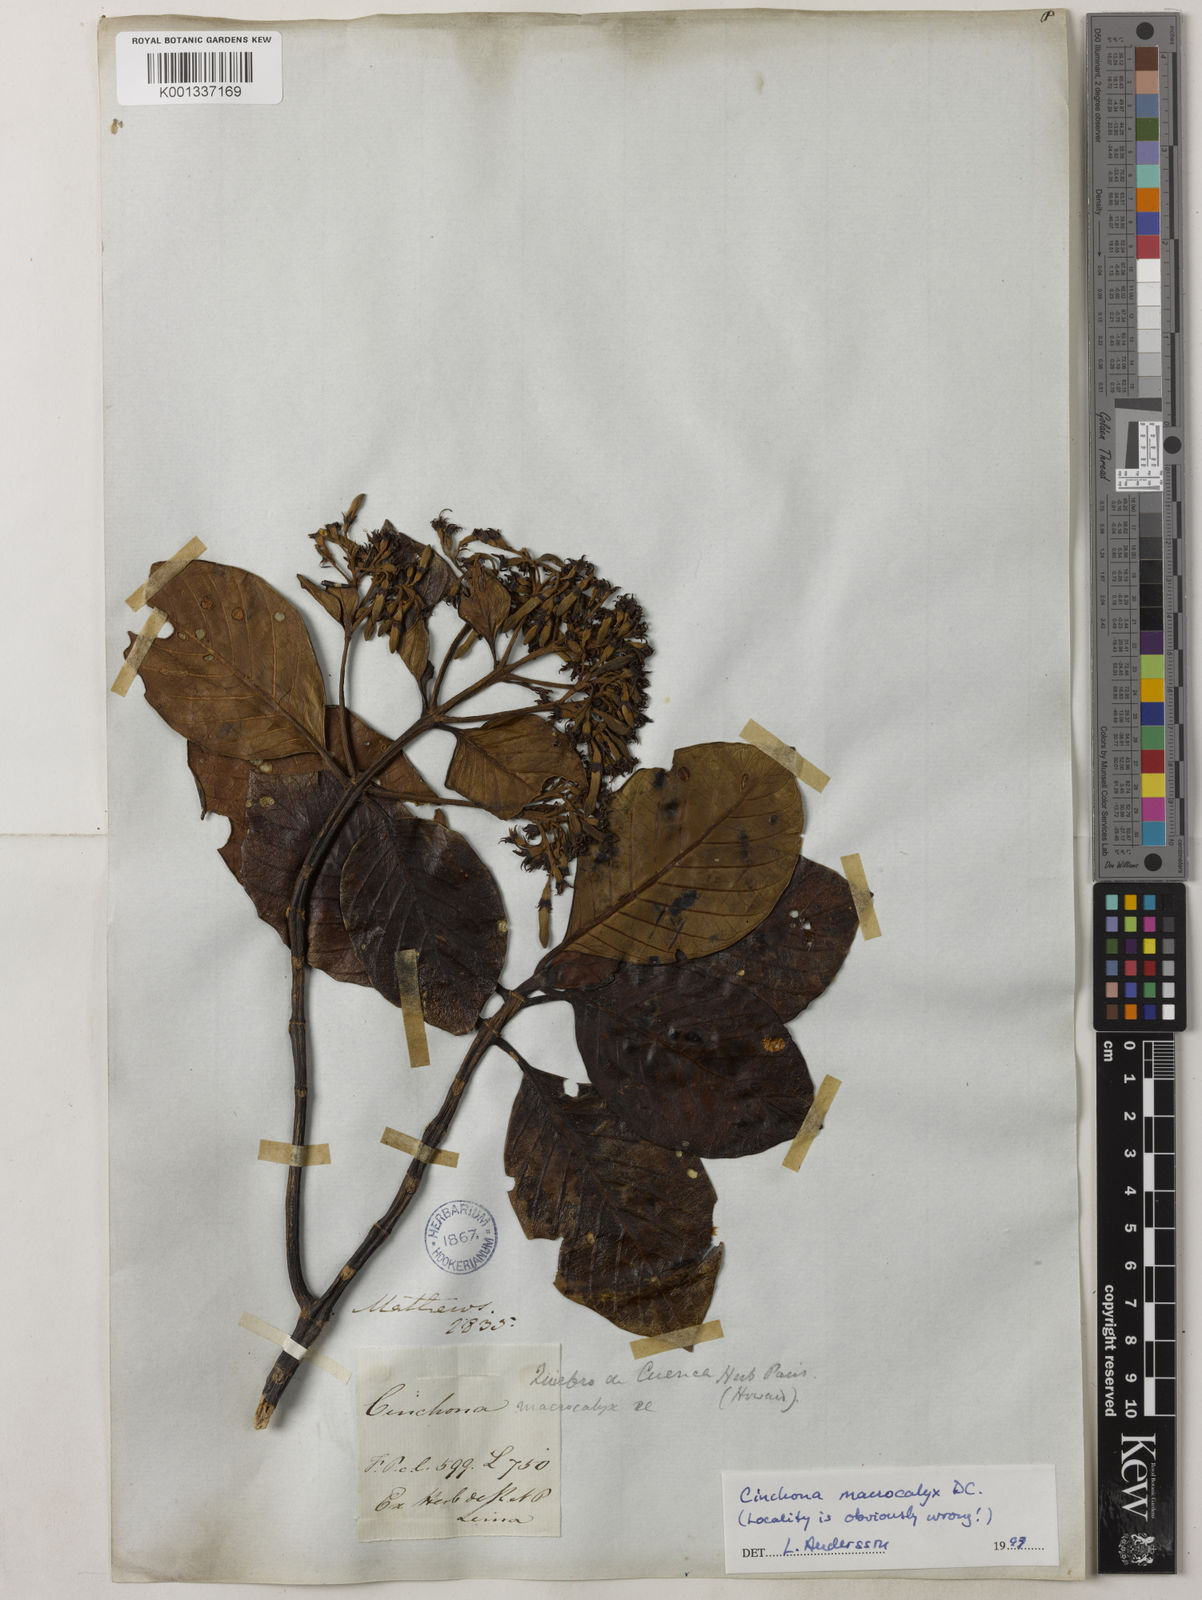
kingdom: Plantae
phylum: Tracheophyta
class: Magnoliopsida
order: Gentianales
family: Rubiaceae
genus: Cinchona
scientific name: Cinchona macrocalyx
